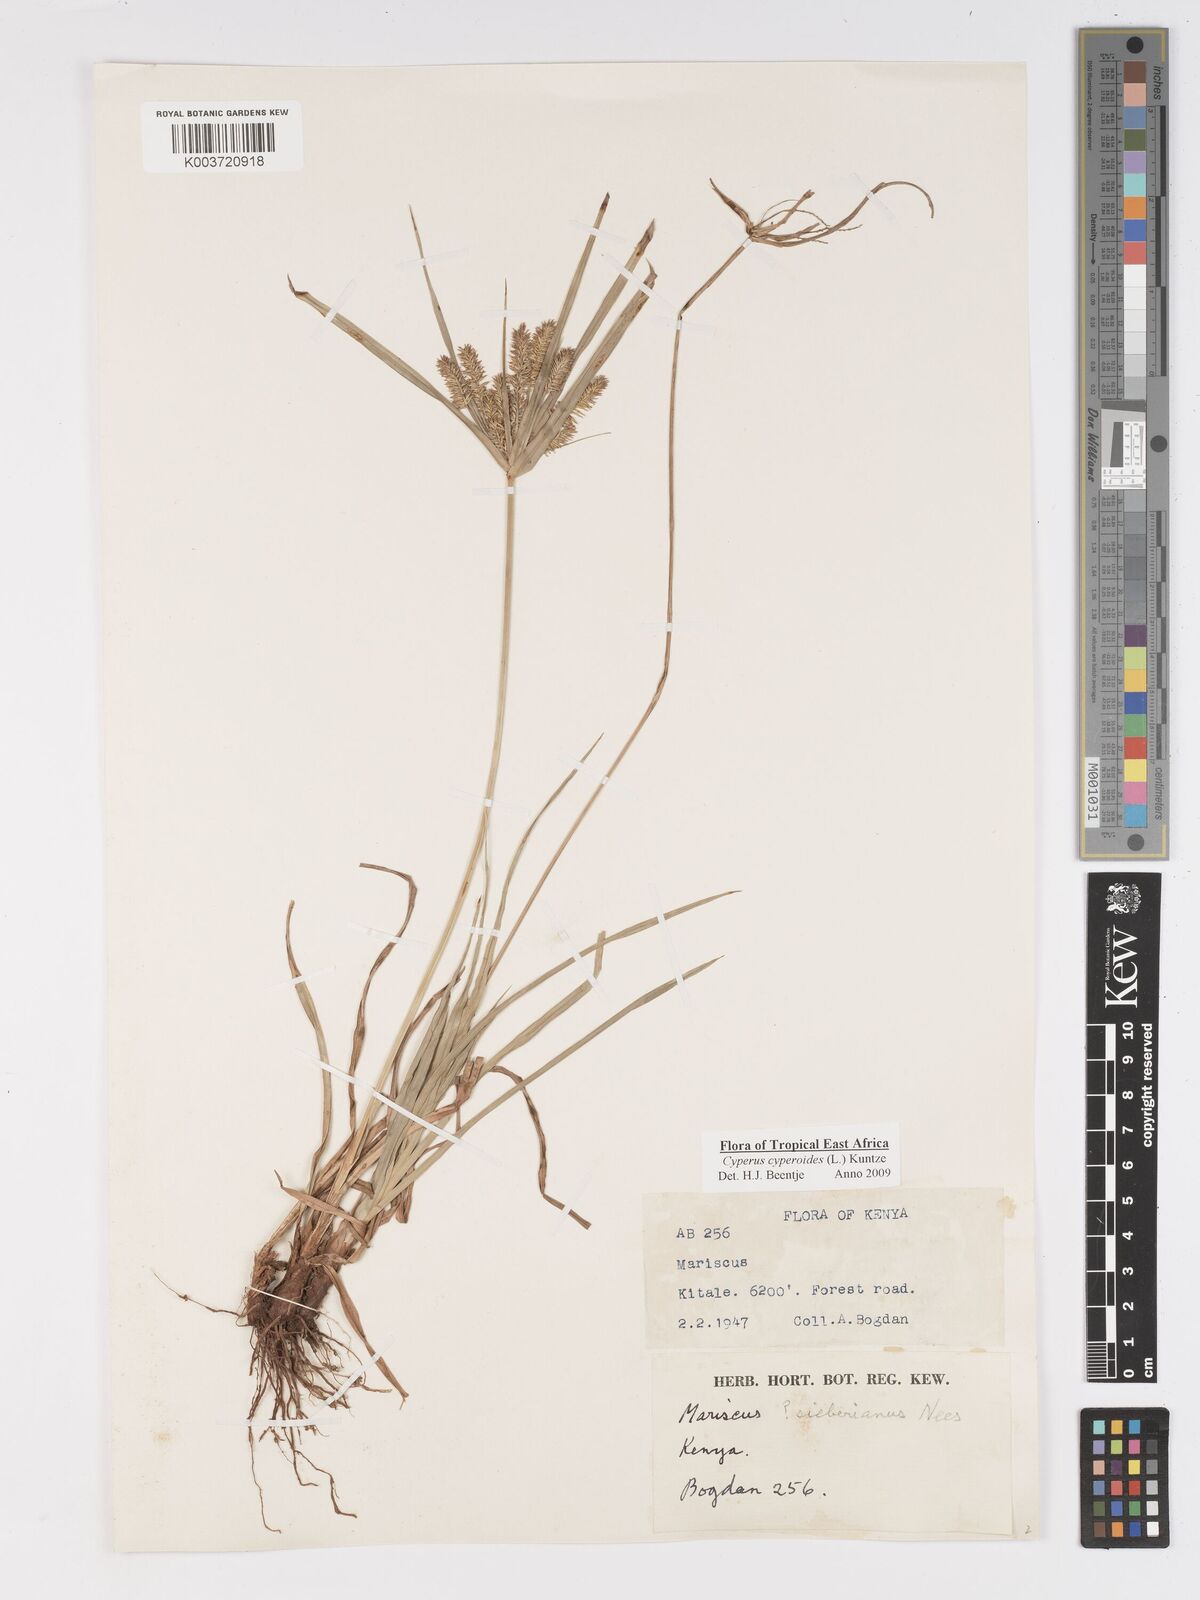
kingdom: Plantae
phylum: Tracheophyta
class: Liliopsida
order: Poales
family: Cyperaceae
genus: Cyperus
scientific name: Cyperus cyperoides
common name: Pacific island flat sedge
